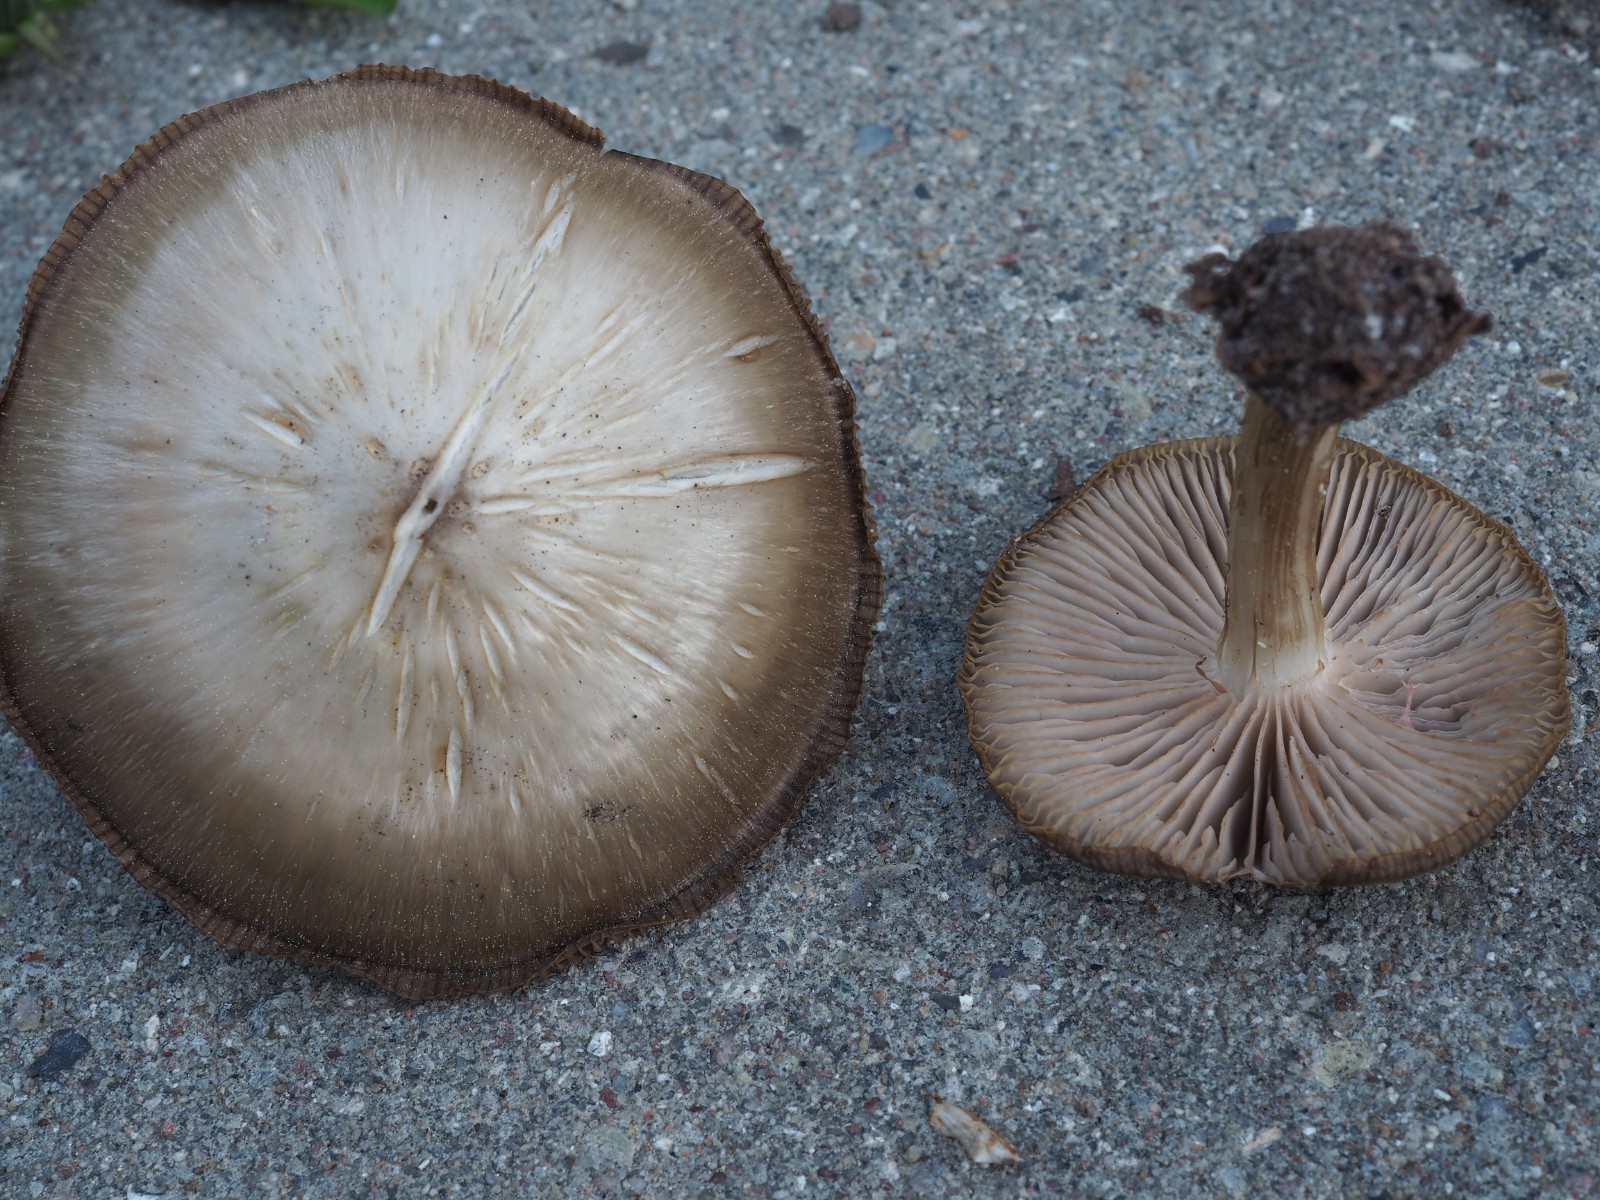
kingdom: Fungi
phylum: Basidiomycota
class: Agaricomycetes
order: Agaricales
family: Entolomataceae
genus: Entoloma
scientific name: Entoloma aprile
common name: maj-rødblad
